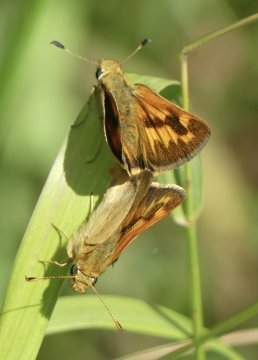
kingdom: Animalia
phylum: Arthropoda
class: Insecta
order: Lepidoptera
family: Hesperiidae
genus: Ochlodes
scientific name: Ochlodes sylvanoides
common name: Woodland Skipper
